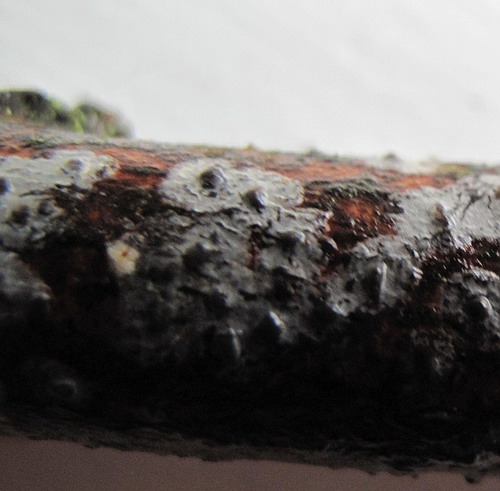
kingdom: Fungi
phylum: Basidiomycota
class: Agaricomycetes
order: Russulales
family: Peniophoraceae
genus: Peniophora
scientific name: Peniophora lycii
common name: grynet voksskind
